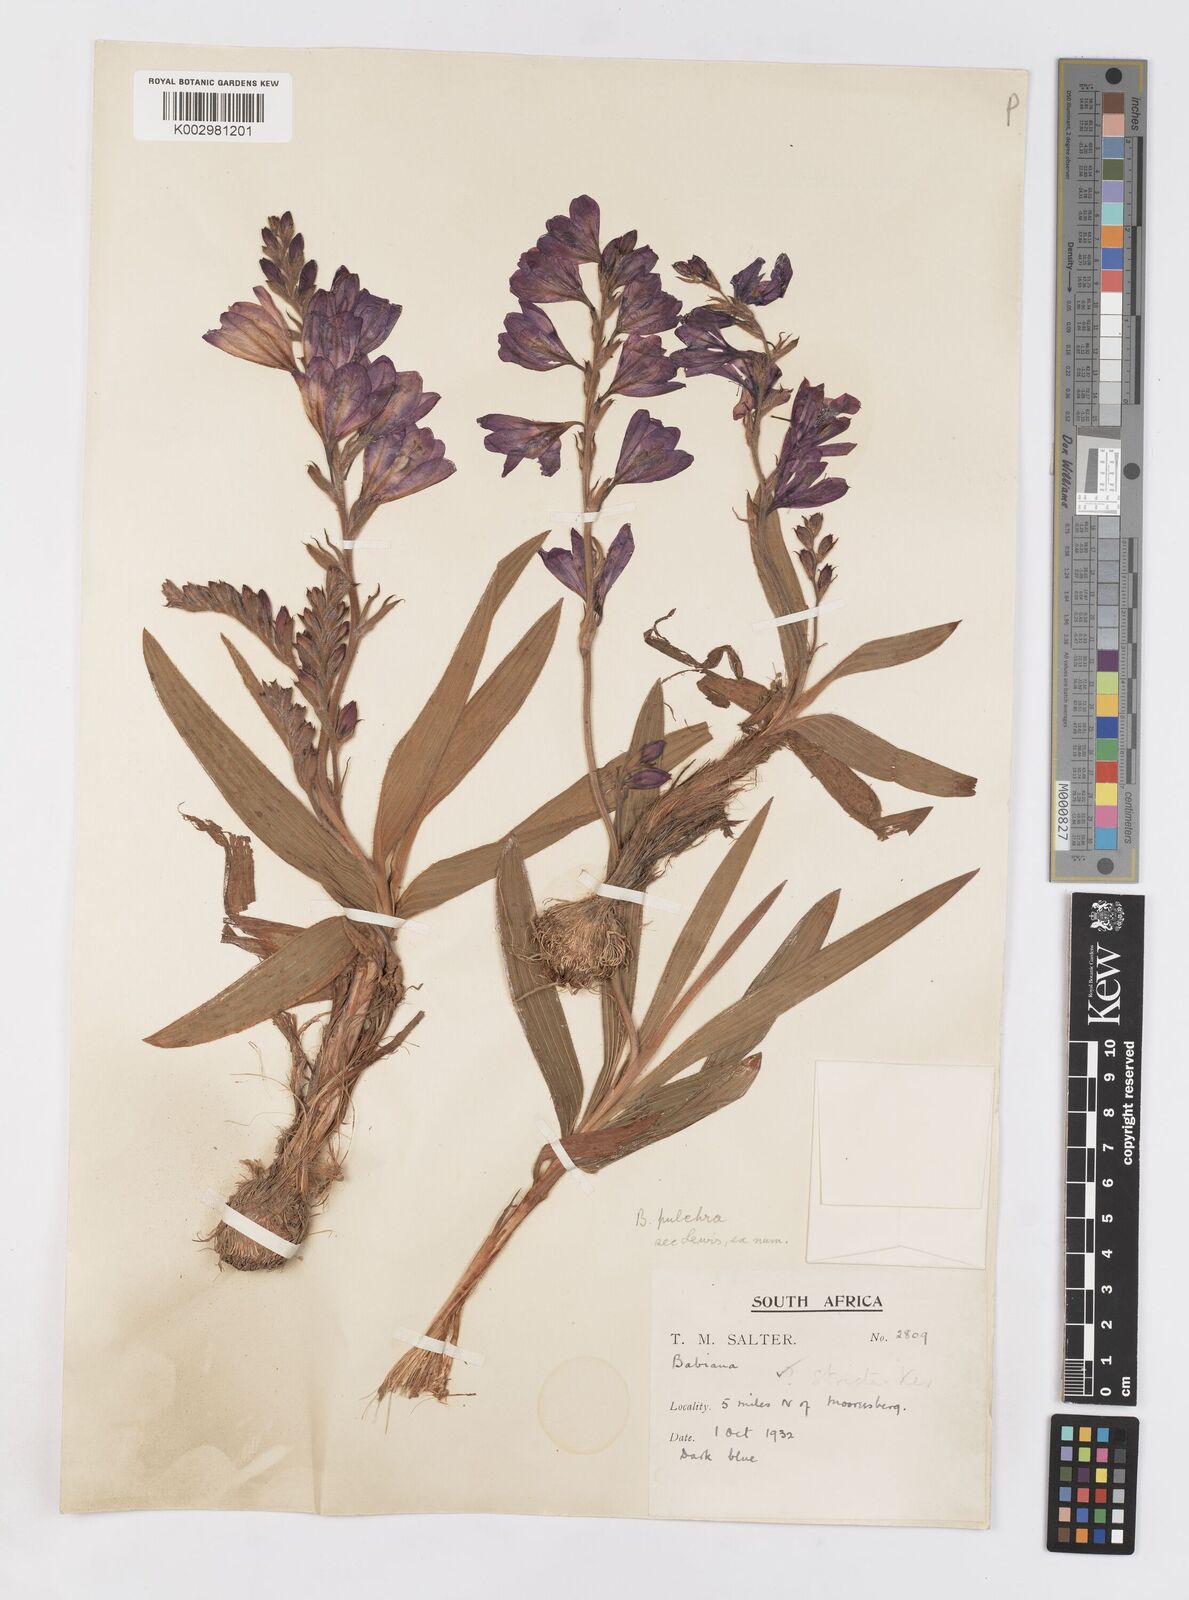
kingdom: Plantae
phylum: Tracheophyta
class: Liliopsida
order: Asparagales
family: Iridaceae
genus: Babiana
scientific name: Babiana angustifolia
